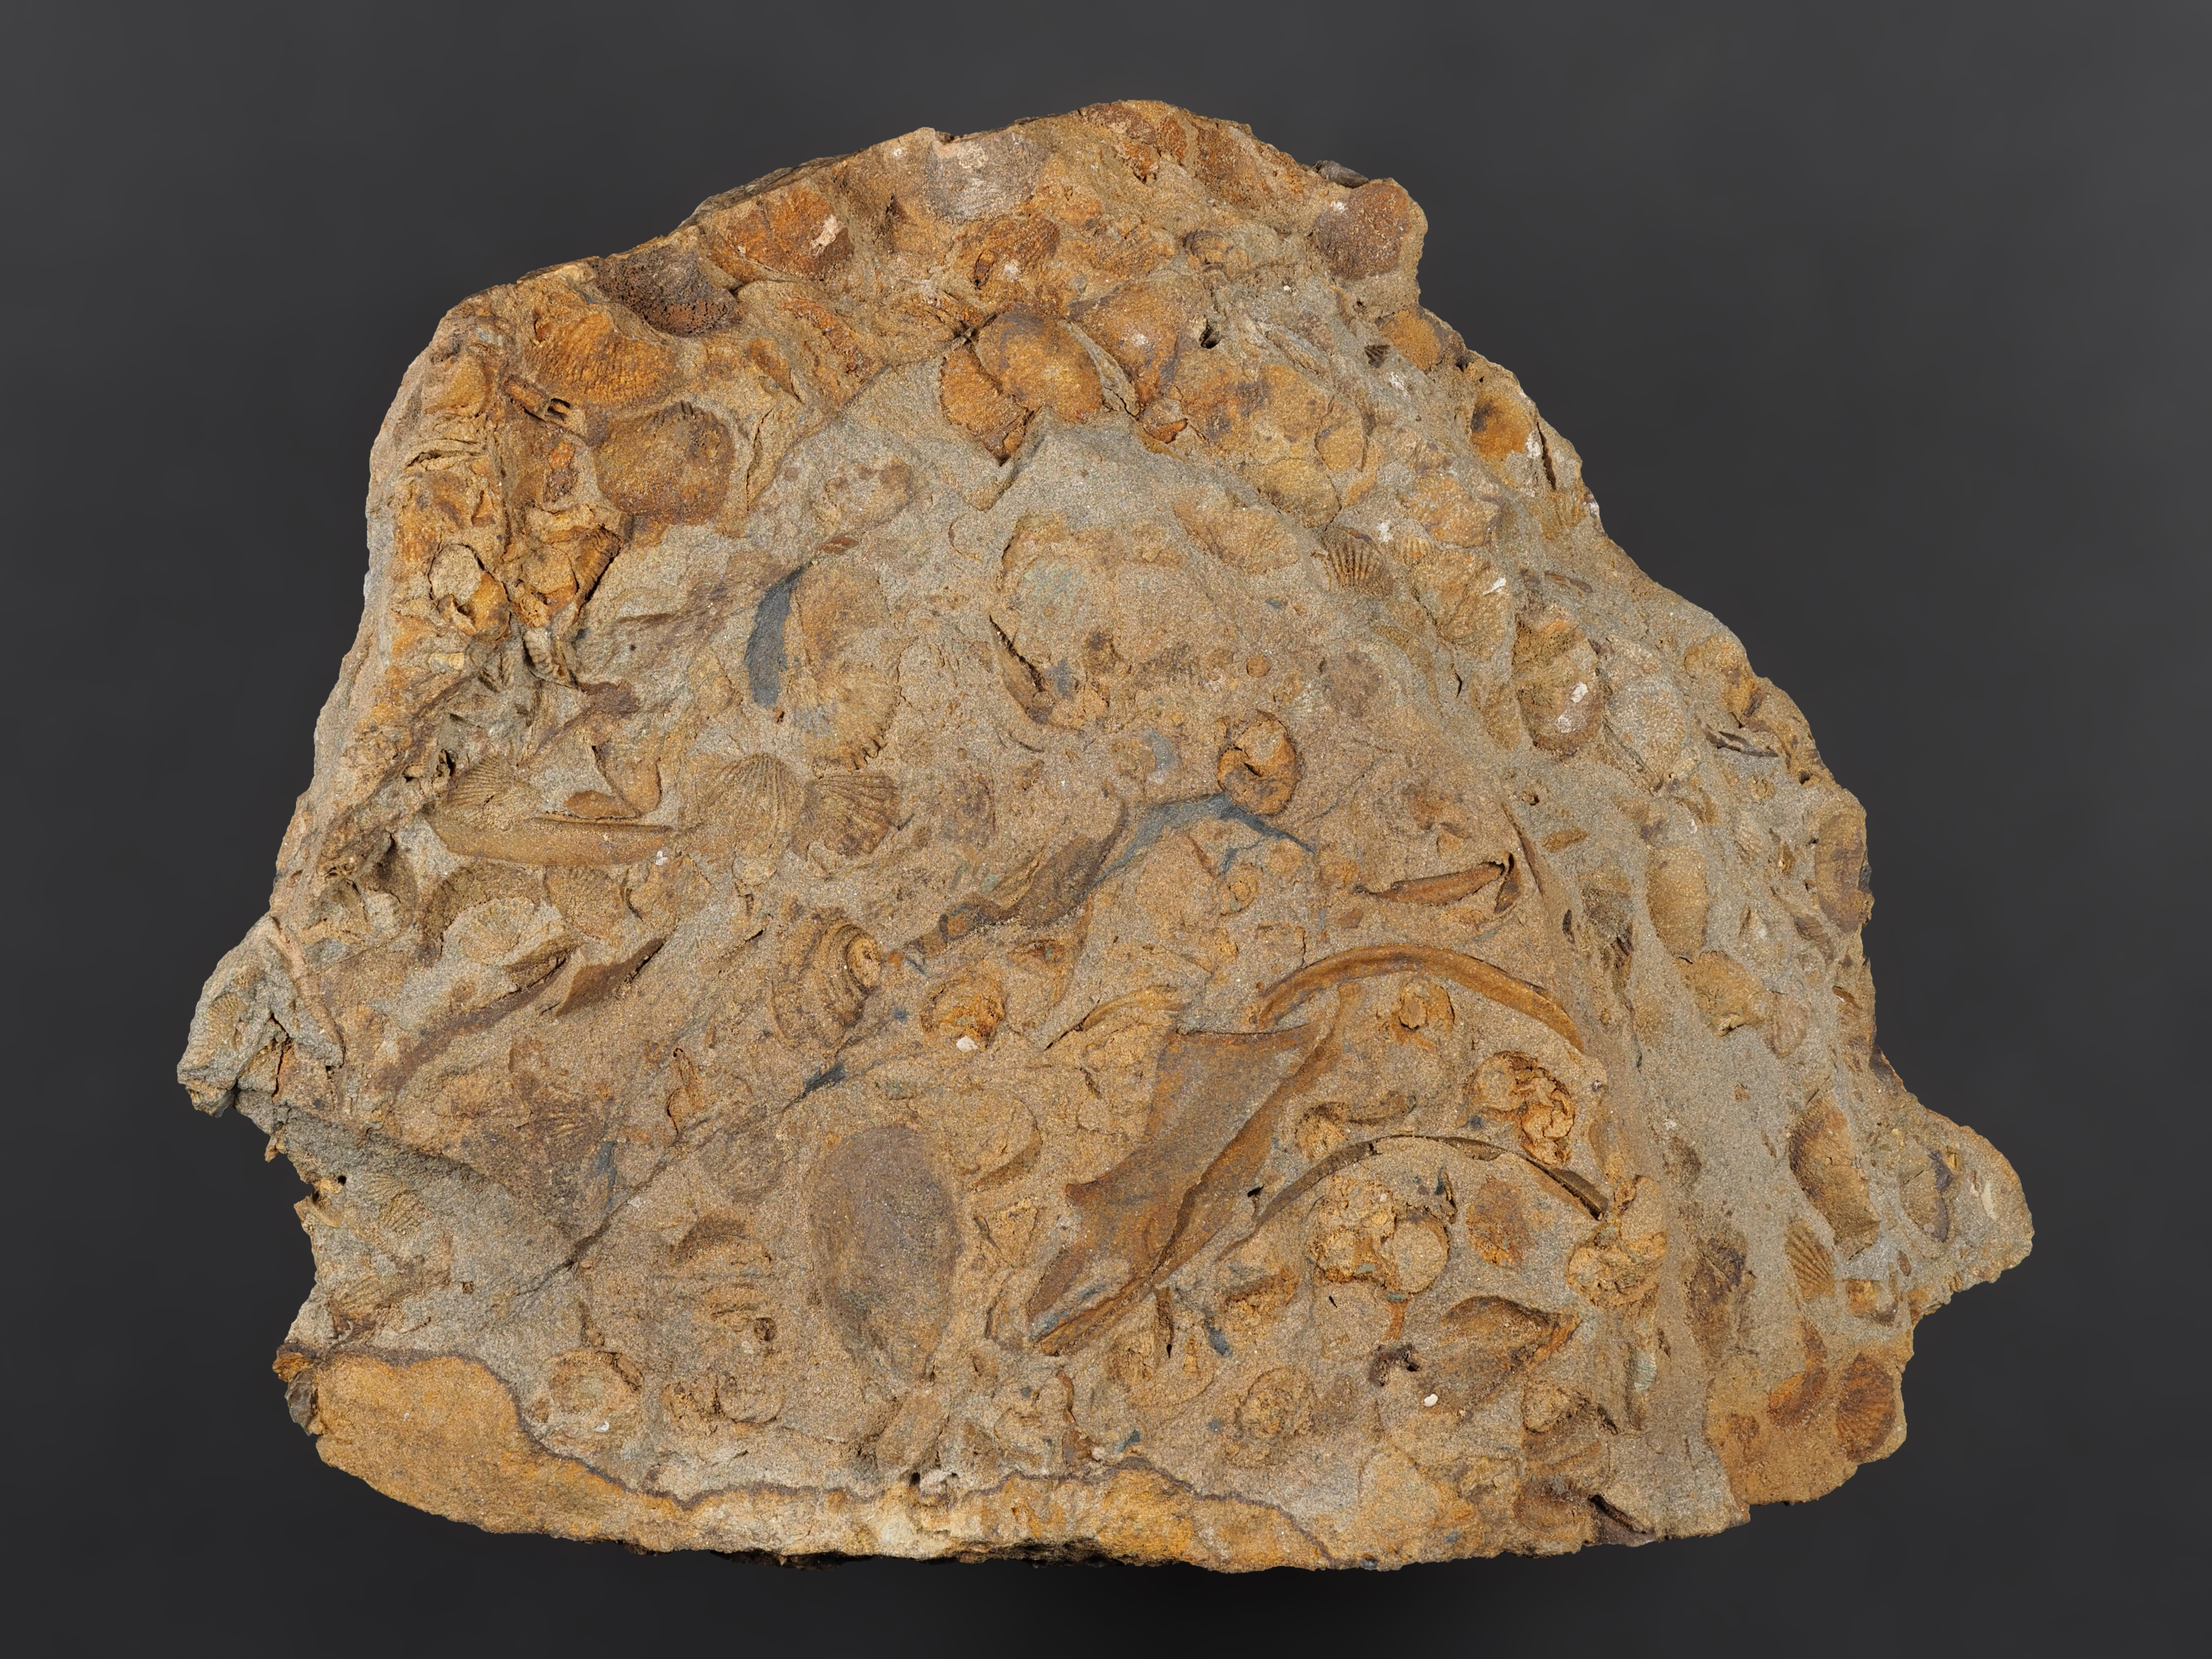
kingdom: Animalia
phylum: Arthropoda
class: Trilobita
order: Phacopida
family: Homalonotidae
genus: Digonus
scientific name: Digonus
